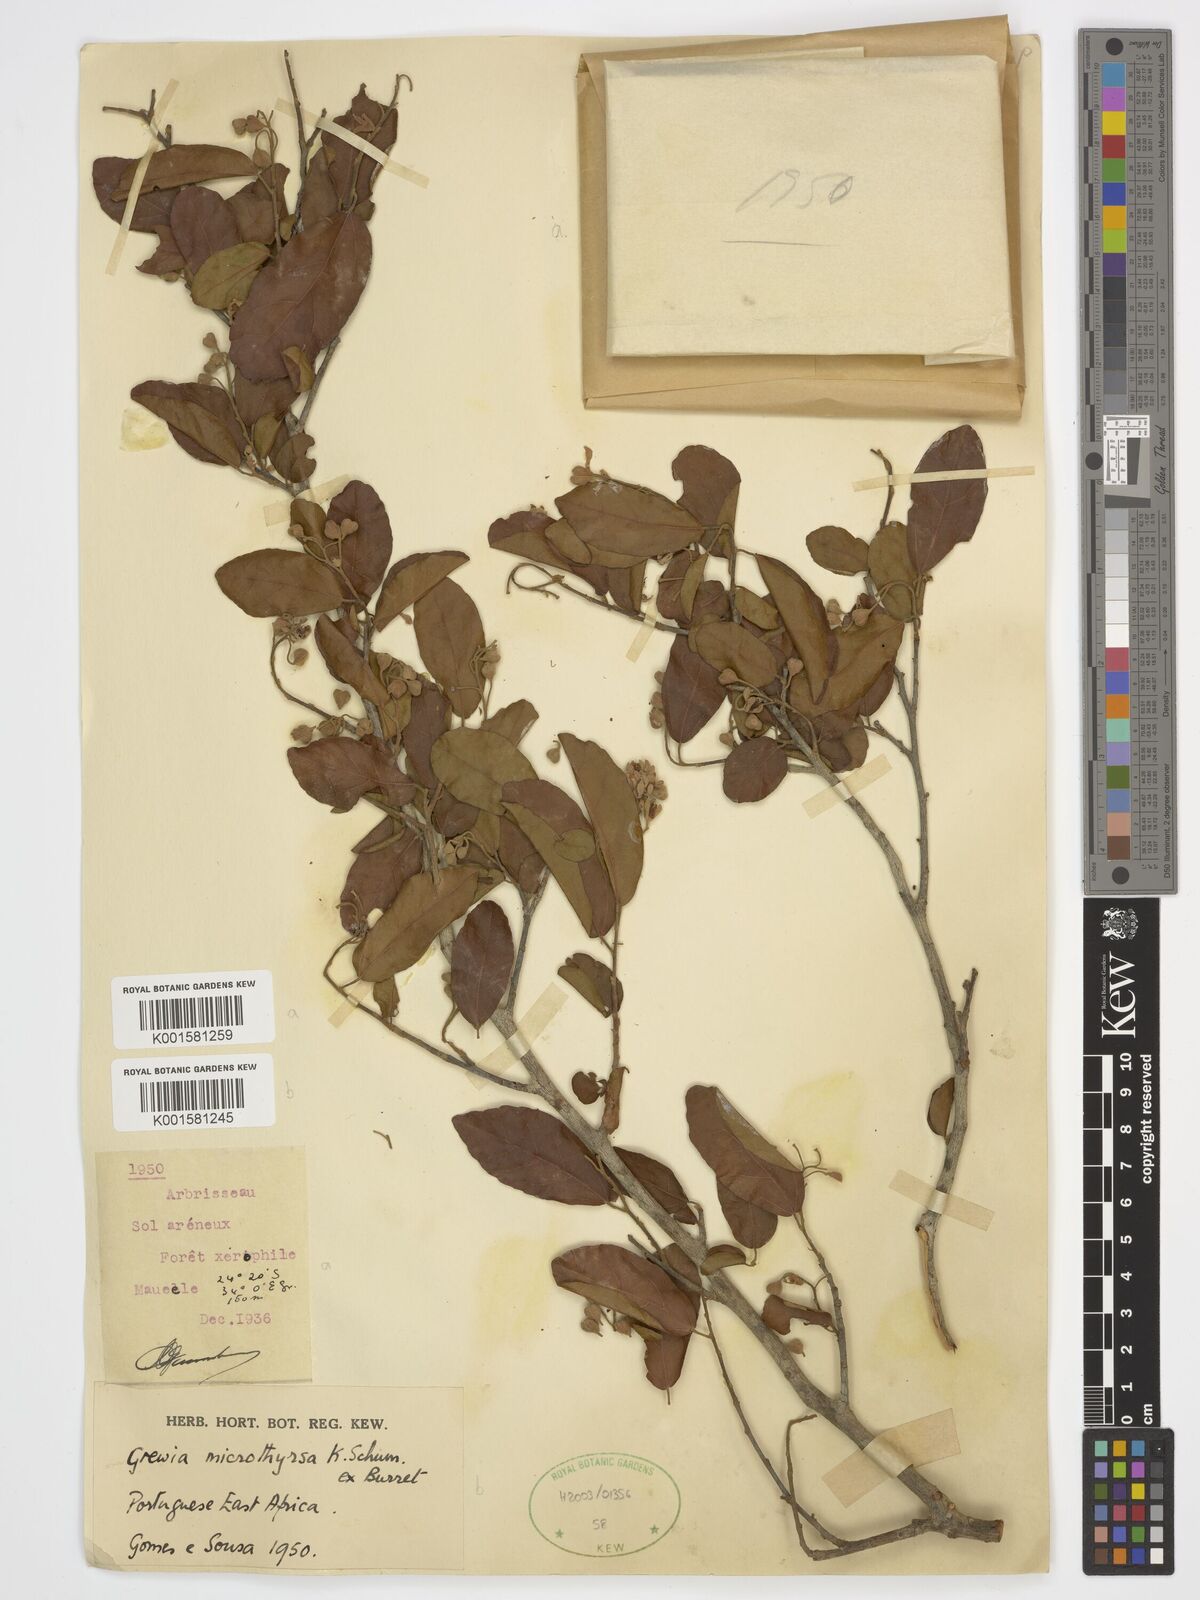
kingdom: Plantae
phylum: Tracheophyta
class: Magnoliopsida
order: Malvales
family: Malvaceae
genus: Microcos
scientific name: Microcos microthyrsa
